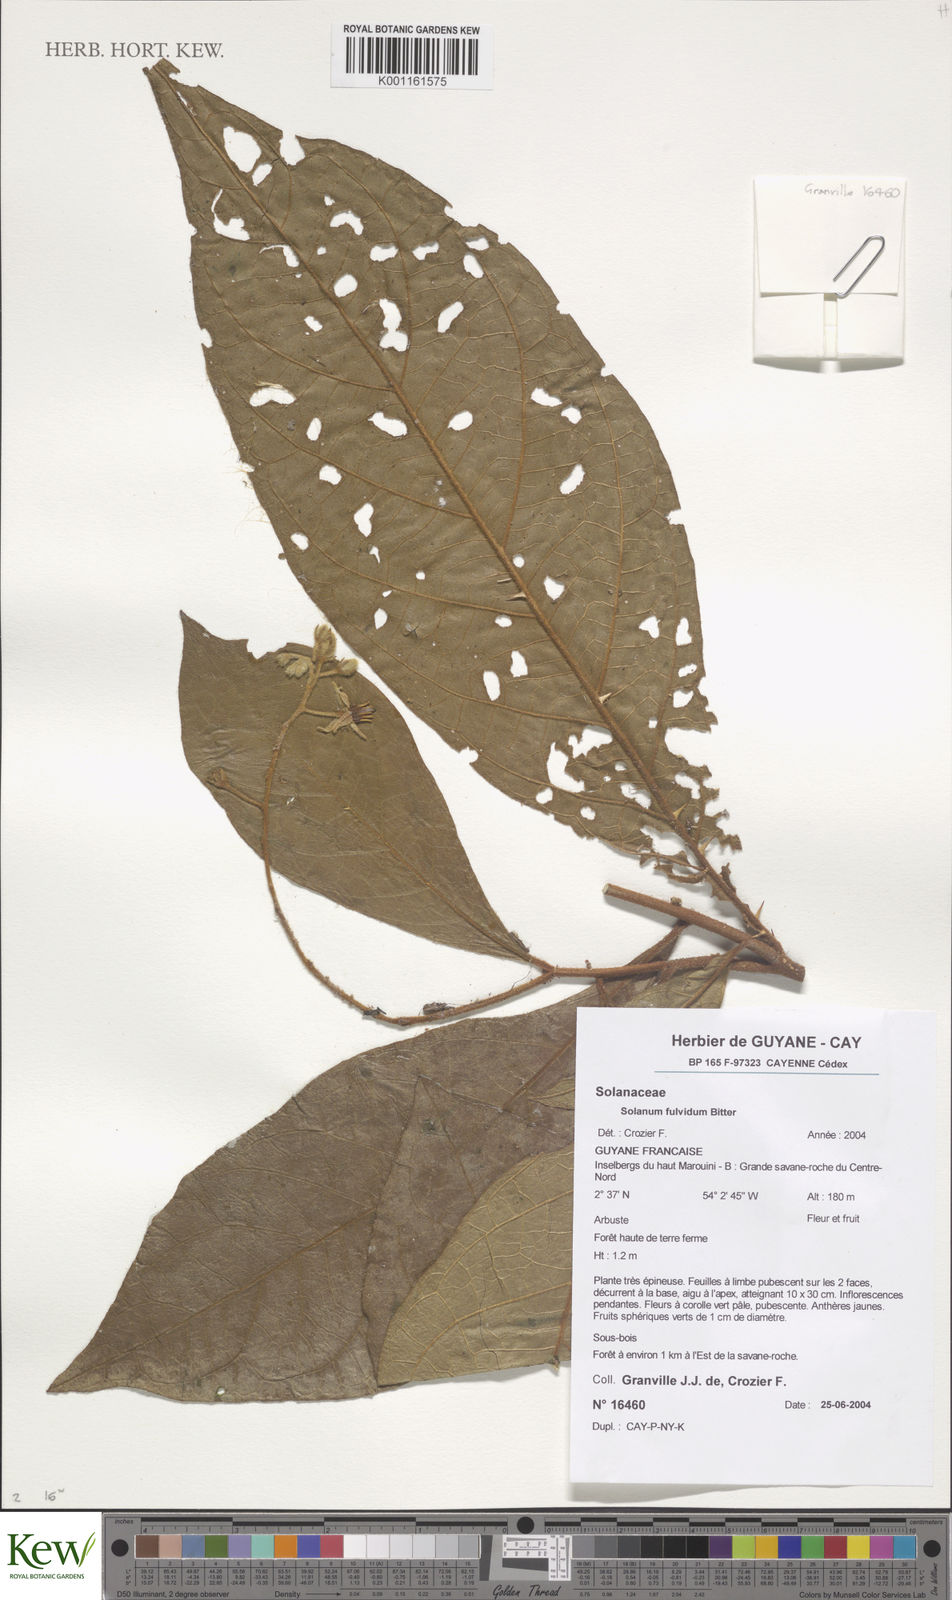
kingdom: Plantae
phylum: Tracheophyta
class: Magnoliopsida
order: Solanales
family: Solanaceae
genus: Solanum
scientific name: Solanum fulvidum
